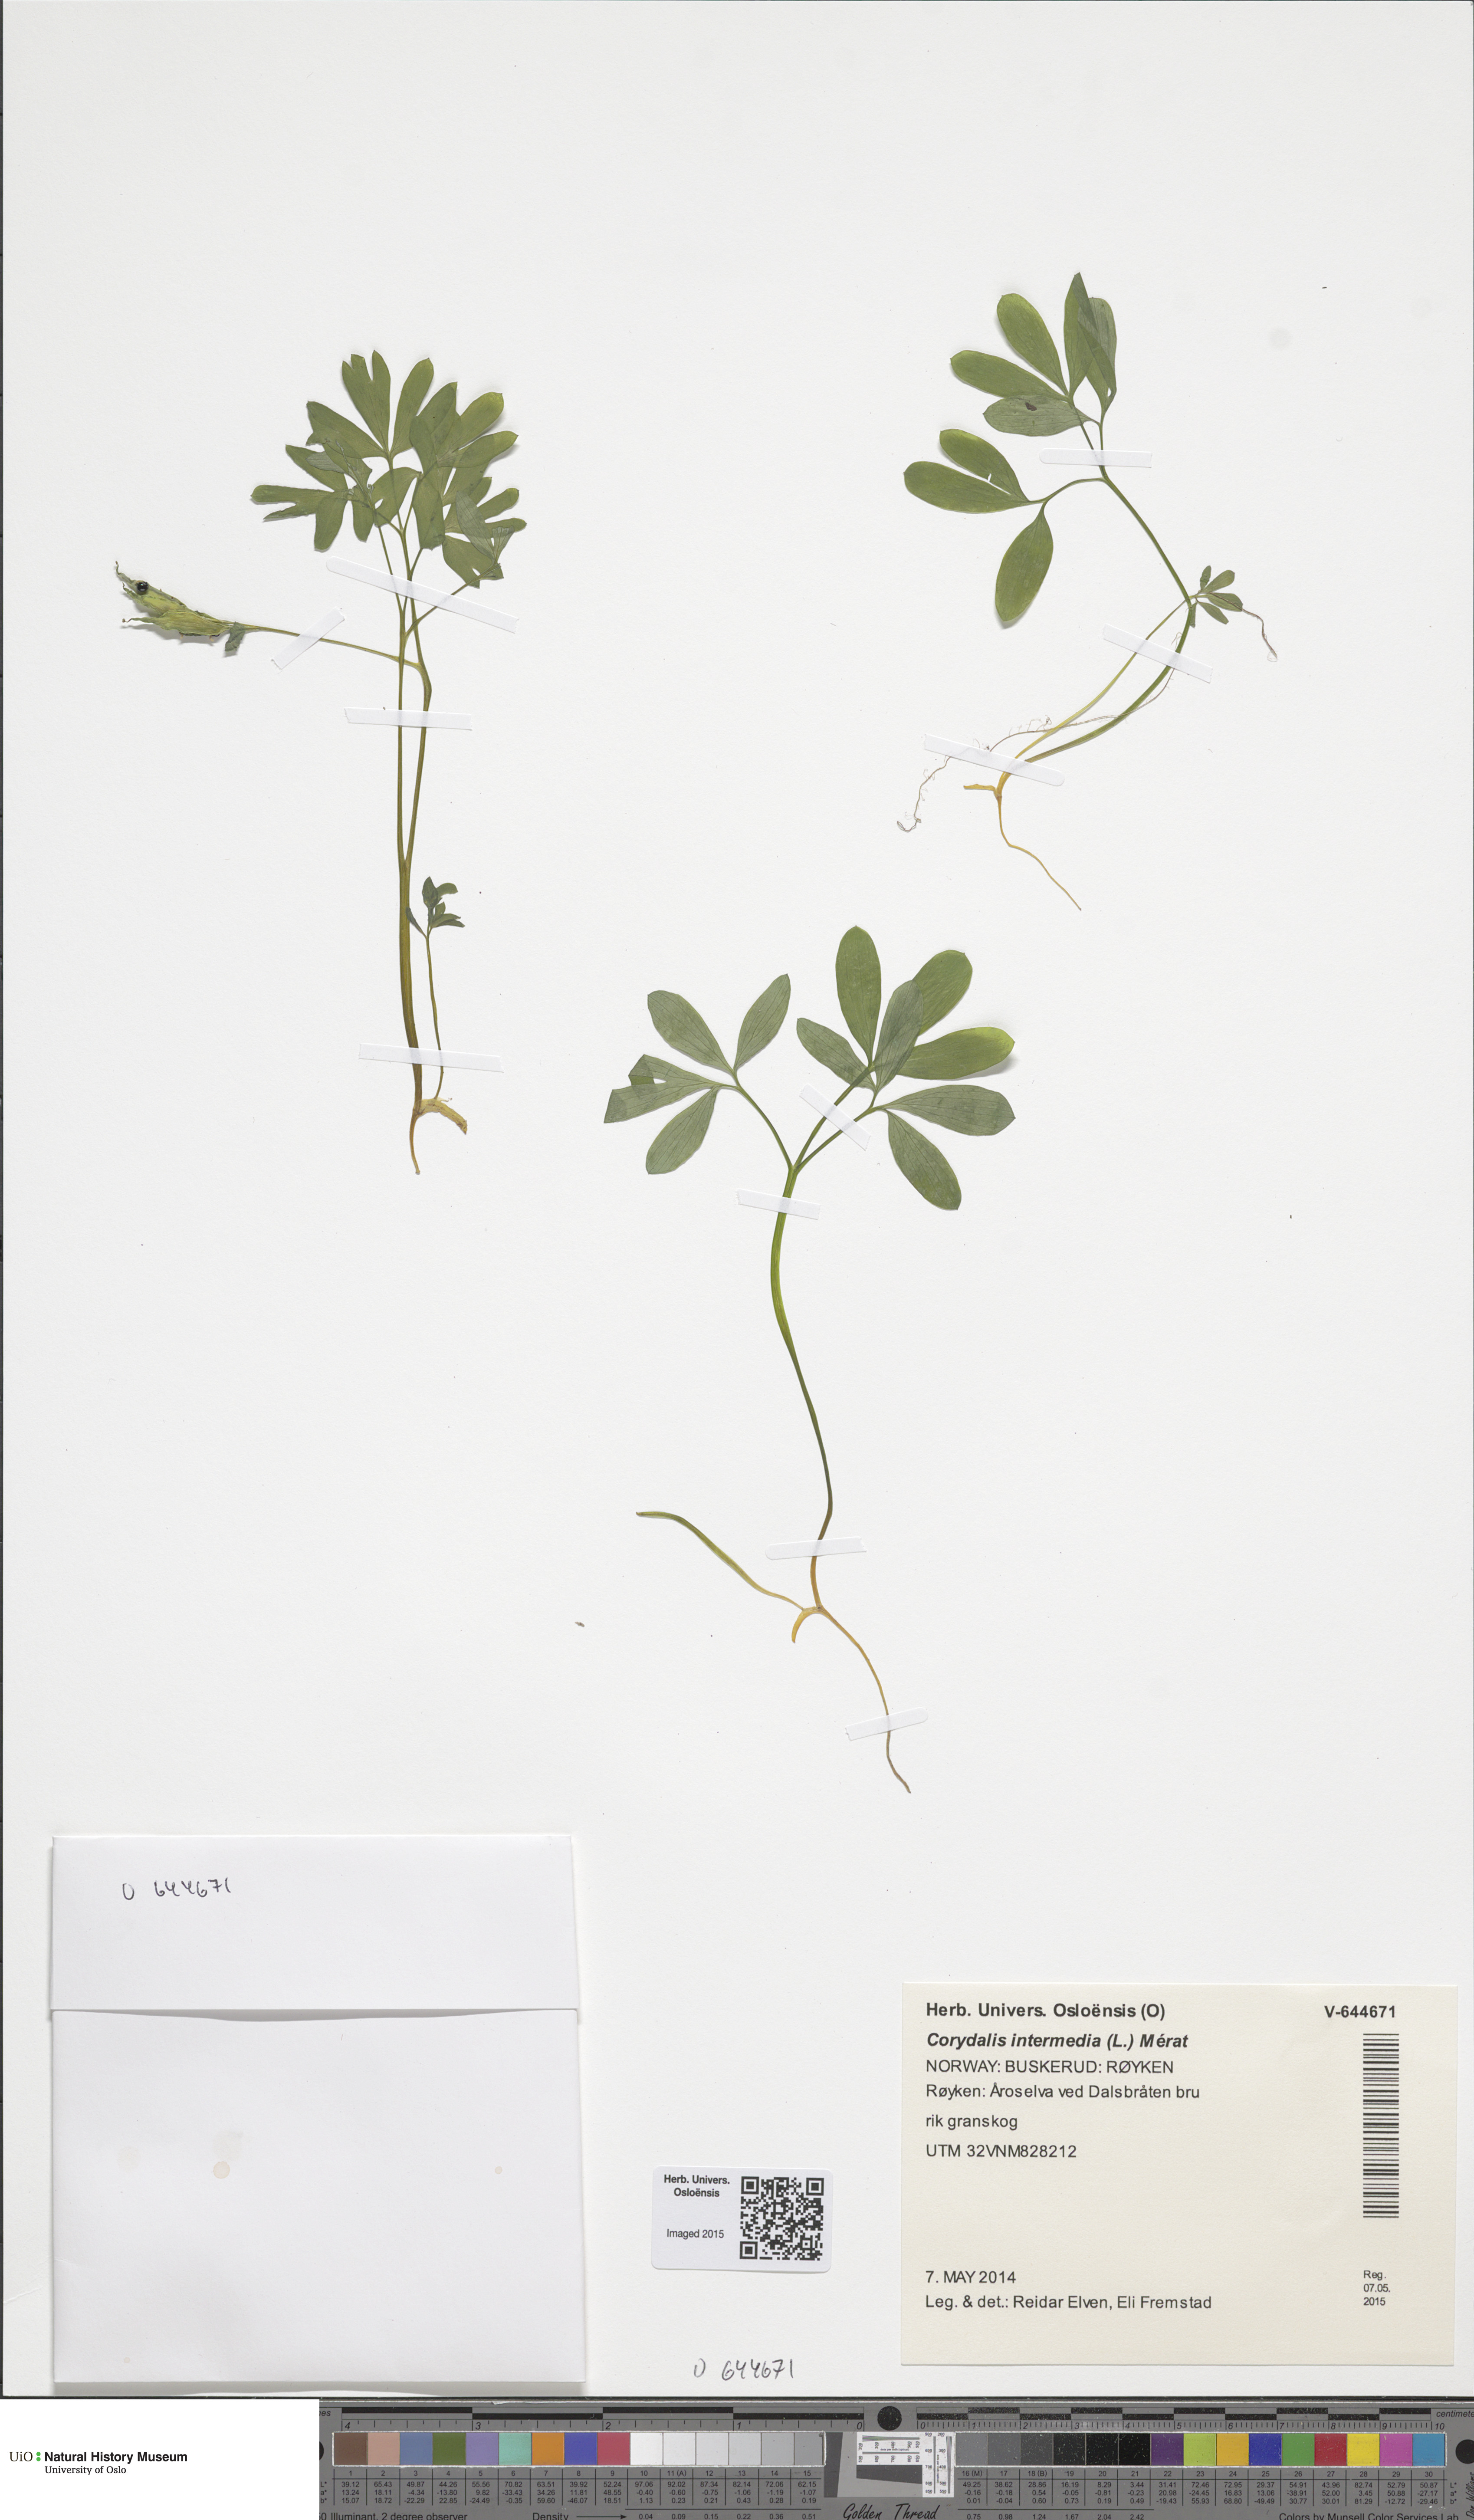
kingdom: Plantae
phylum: Tracheophyta
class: Magnoliopsida
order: Ranunculales
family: Papaveraceae
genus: Corydalis
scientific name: Corydalis intermedia
